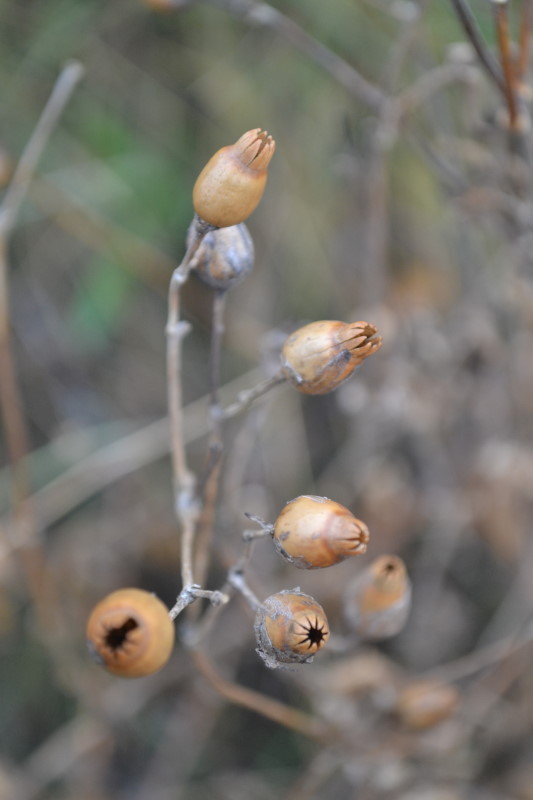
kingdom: Plantae
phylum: Tracheophyta
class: Magnoliopsida
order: Caryophyllales
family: Caryophyllaceae
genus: Viscaria
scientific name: Viscaria vulgaris
